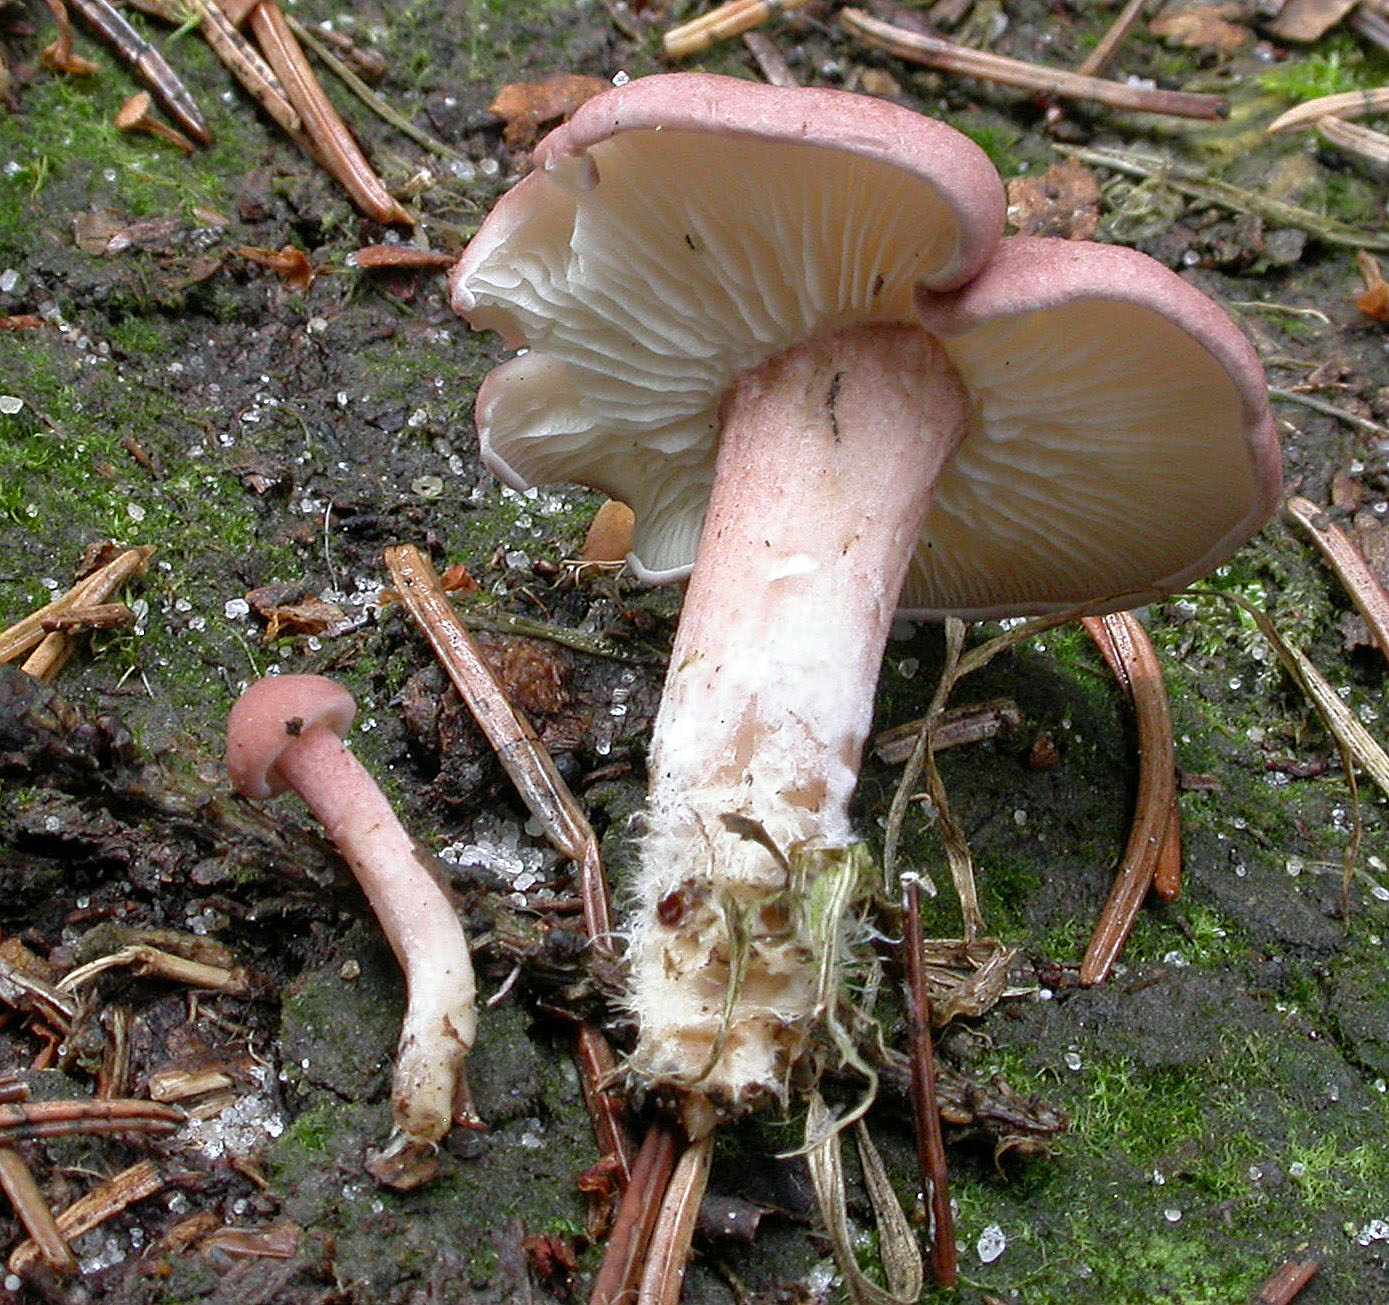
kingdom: Fungi
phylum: Basidiomycota
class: Agaricomycetes
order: Agaricales
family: Lyophyllaceae
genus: Calocybe
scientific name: Calocybe carnea
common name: rosa fagerhat
